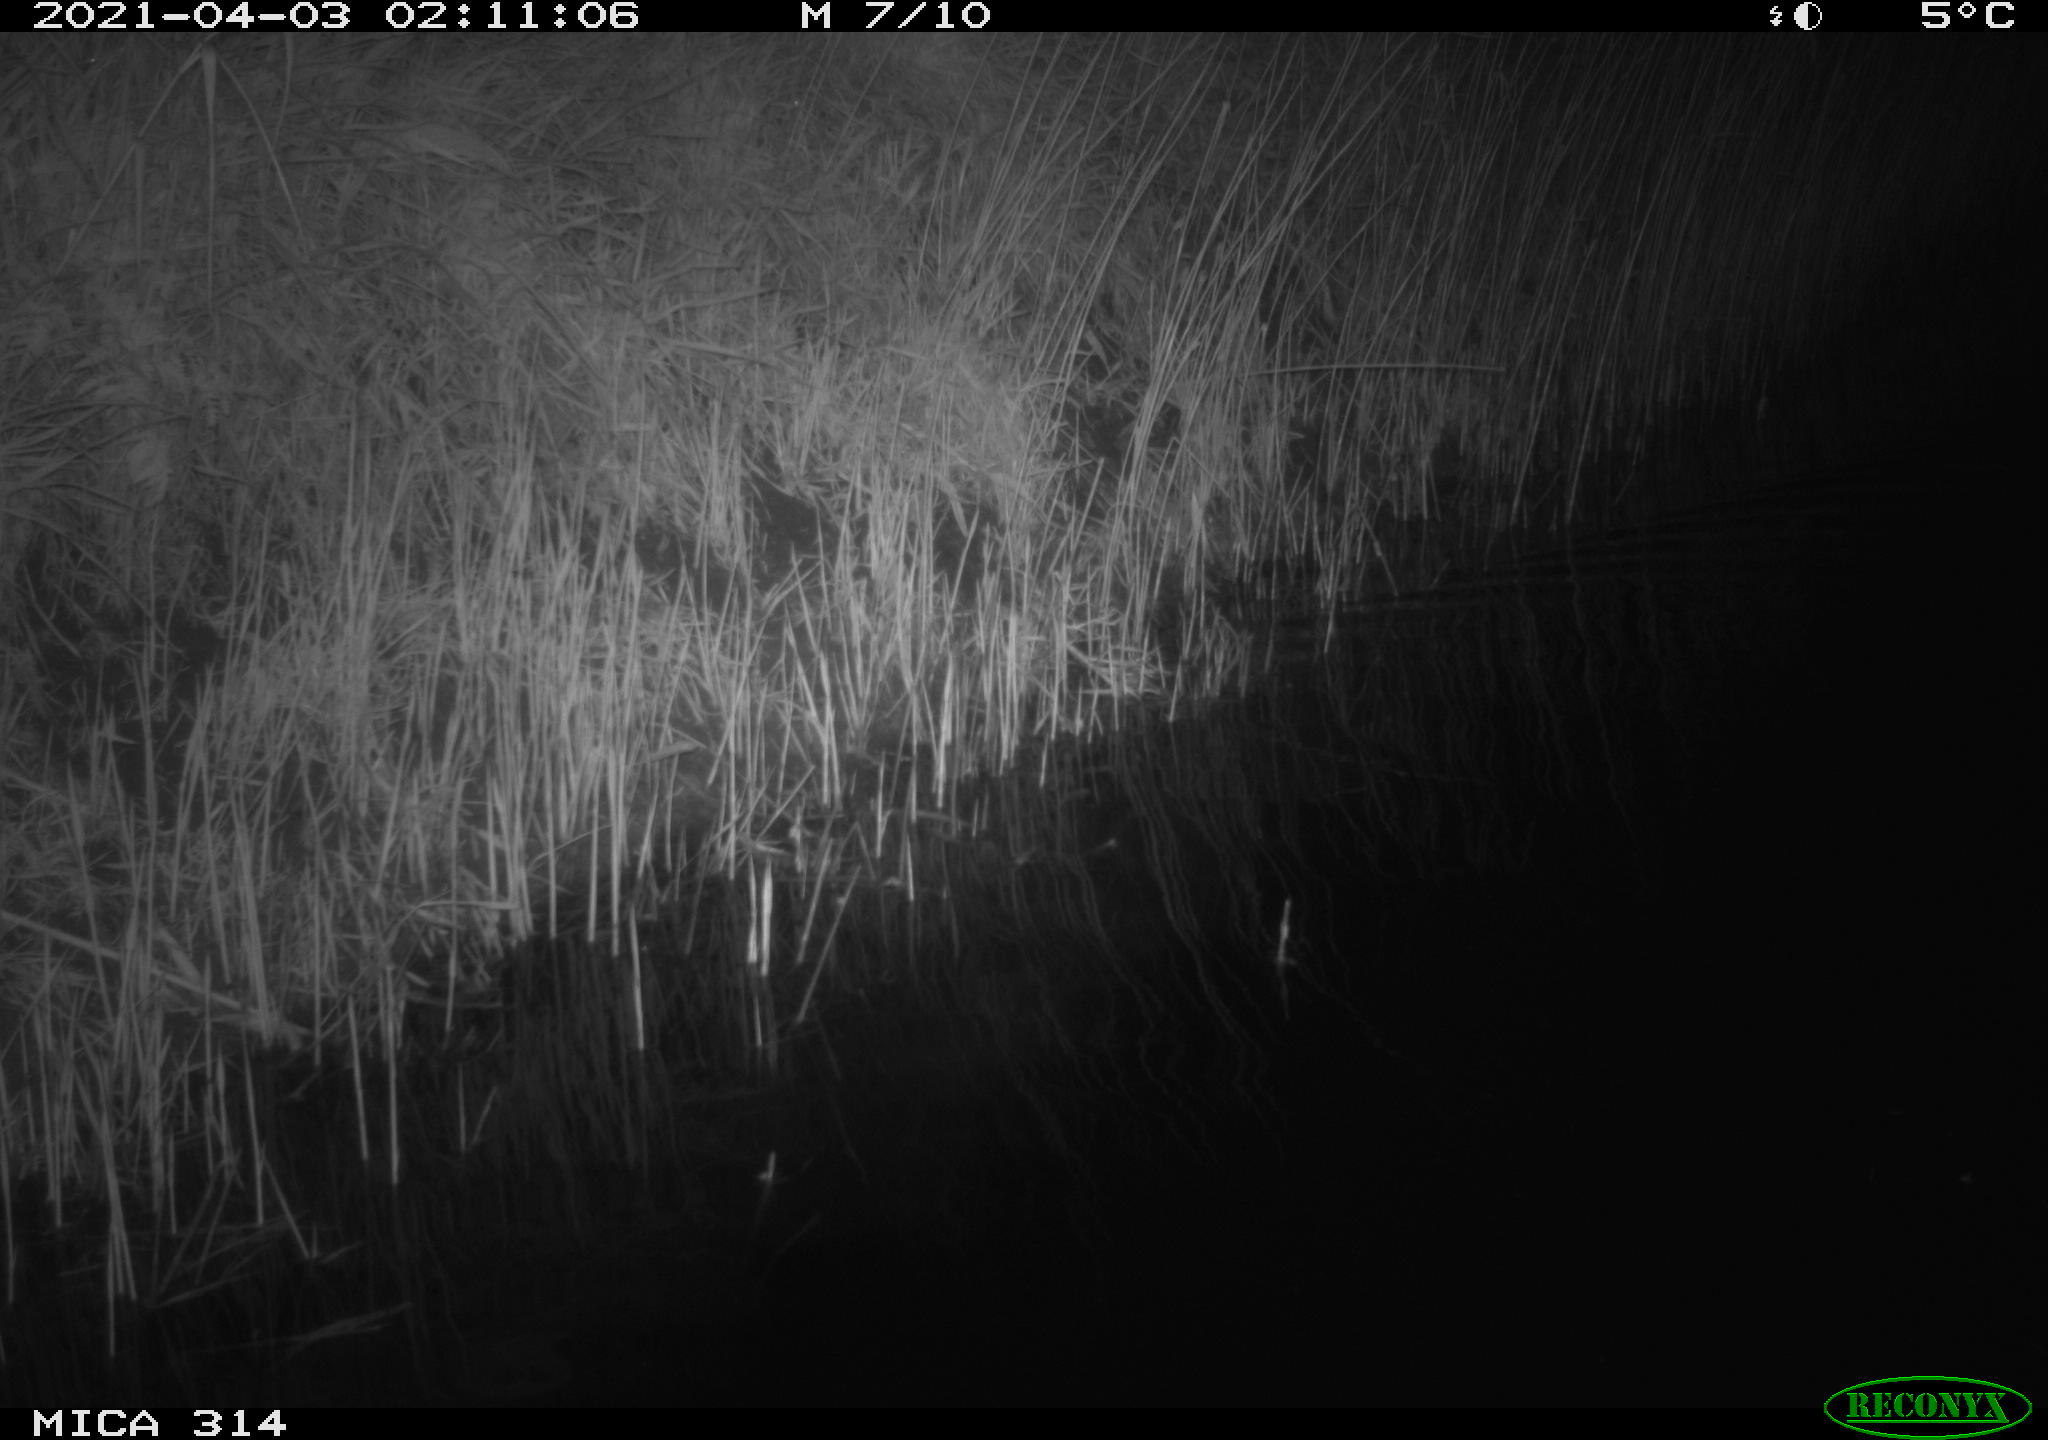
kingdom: Animalia
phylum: Chordata
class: Aves
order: Anseriformes
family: Anatidae
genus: Anas
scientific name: Anas platyrhynchos
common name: Mallard
